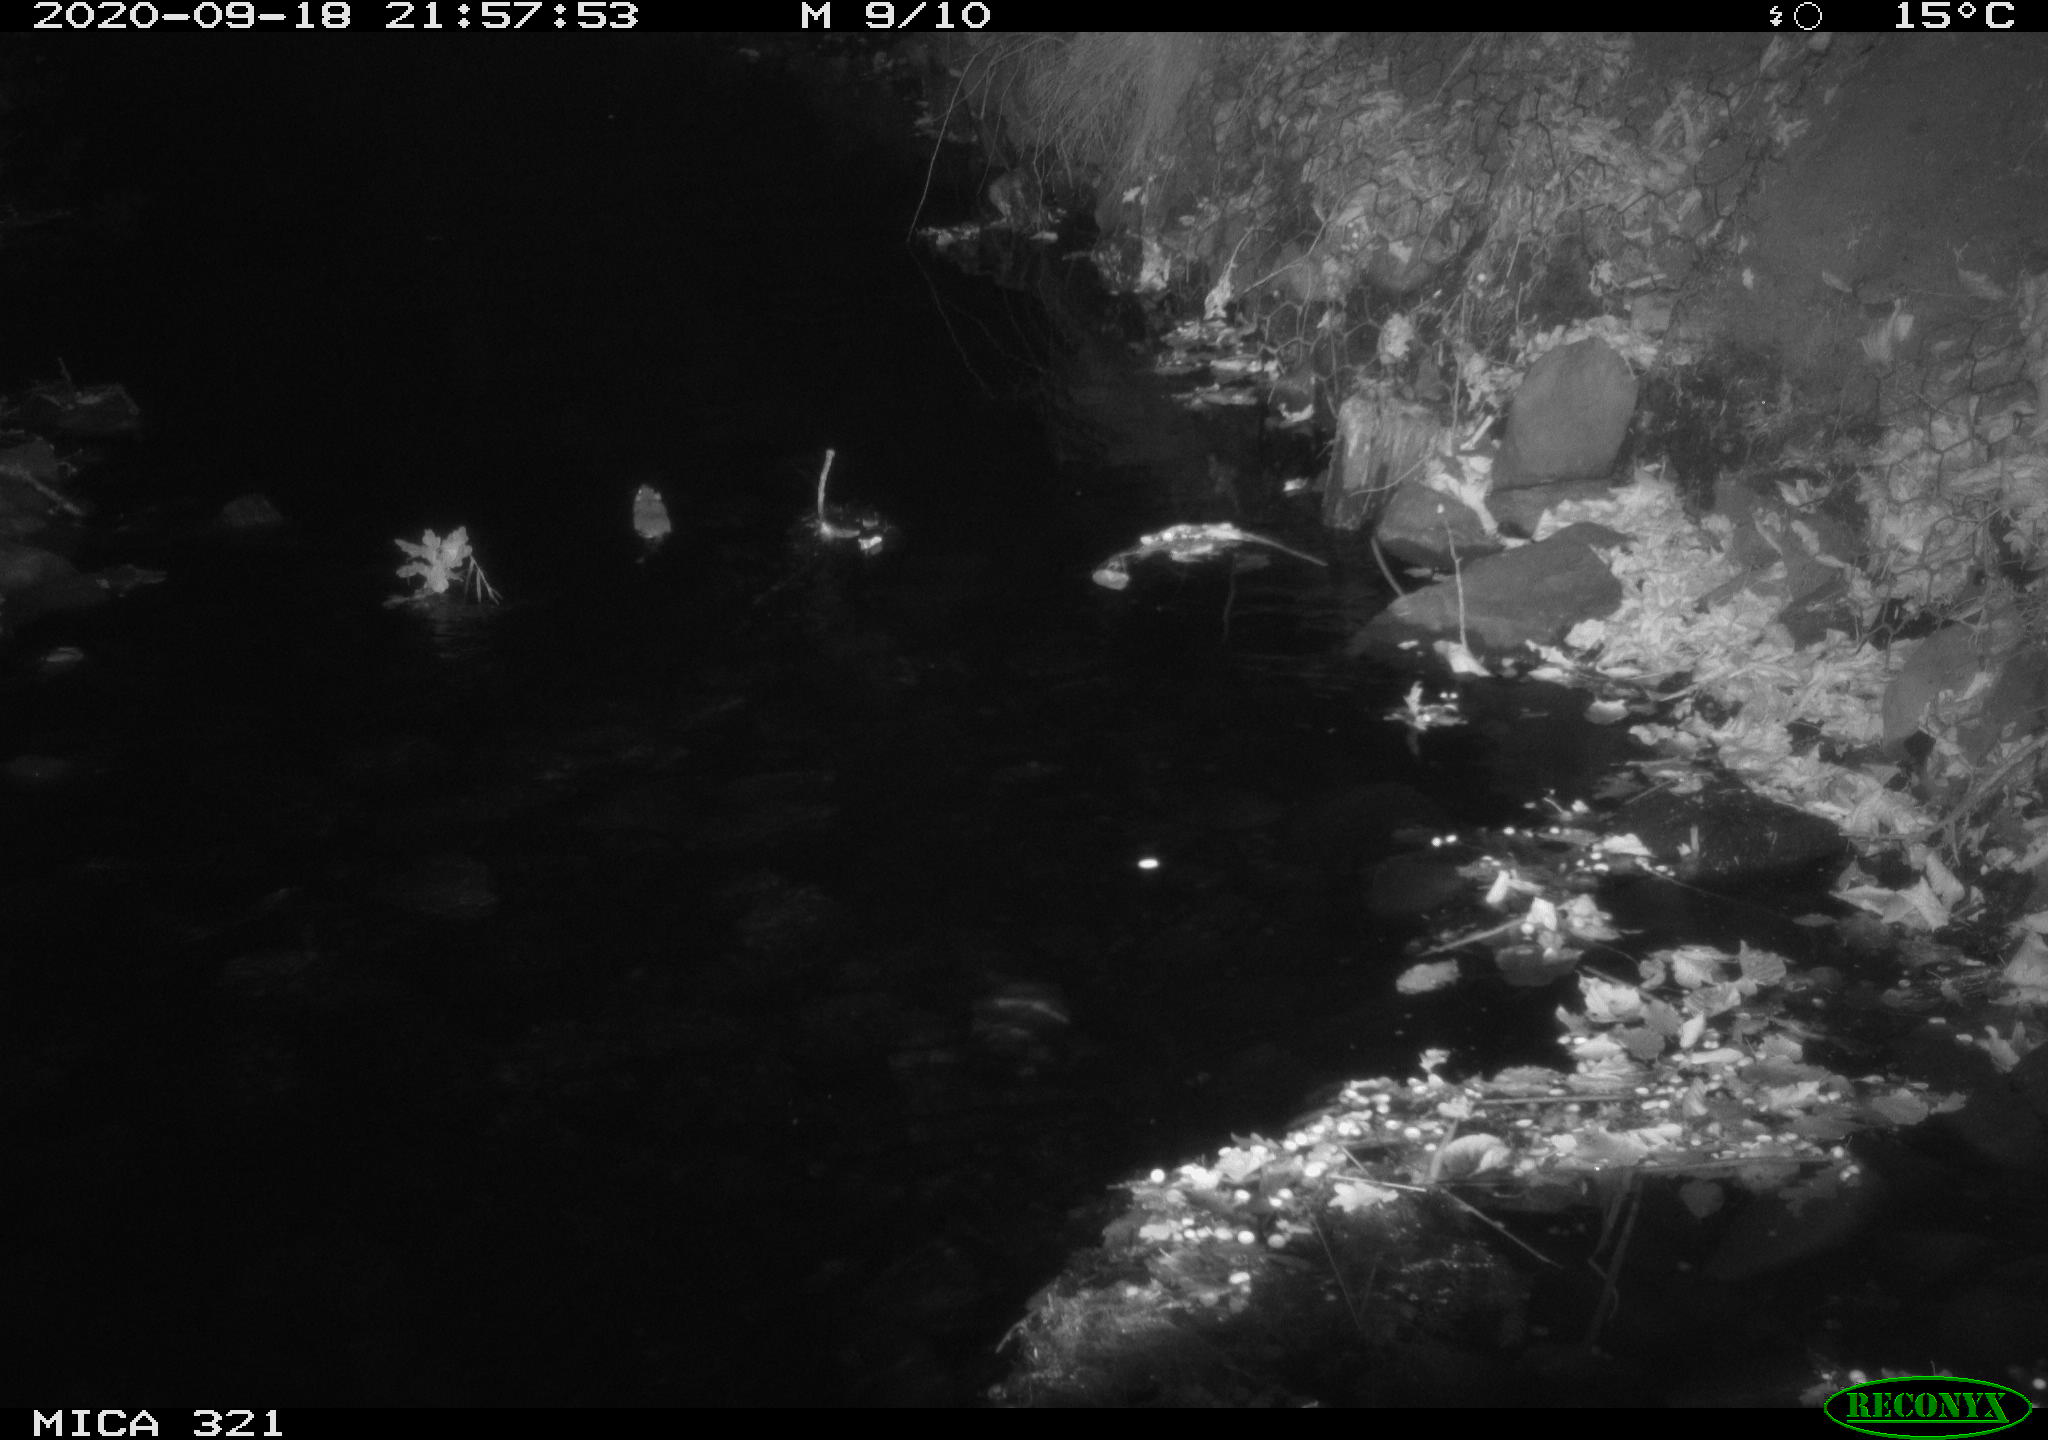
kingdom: Animalia
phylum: Chordata
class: Mammalia
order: Rodentia
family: Muridae
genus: Rattus
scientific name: Rattus norvegicus
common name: Brown rat
